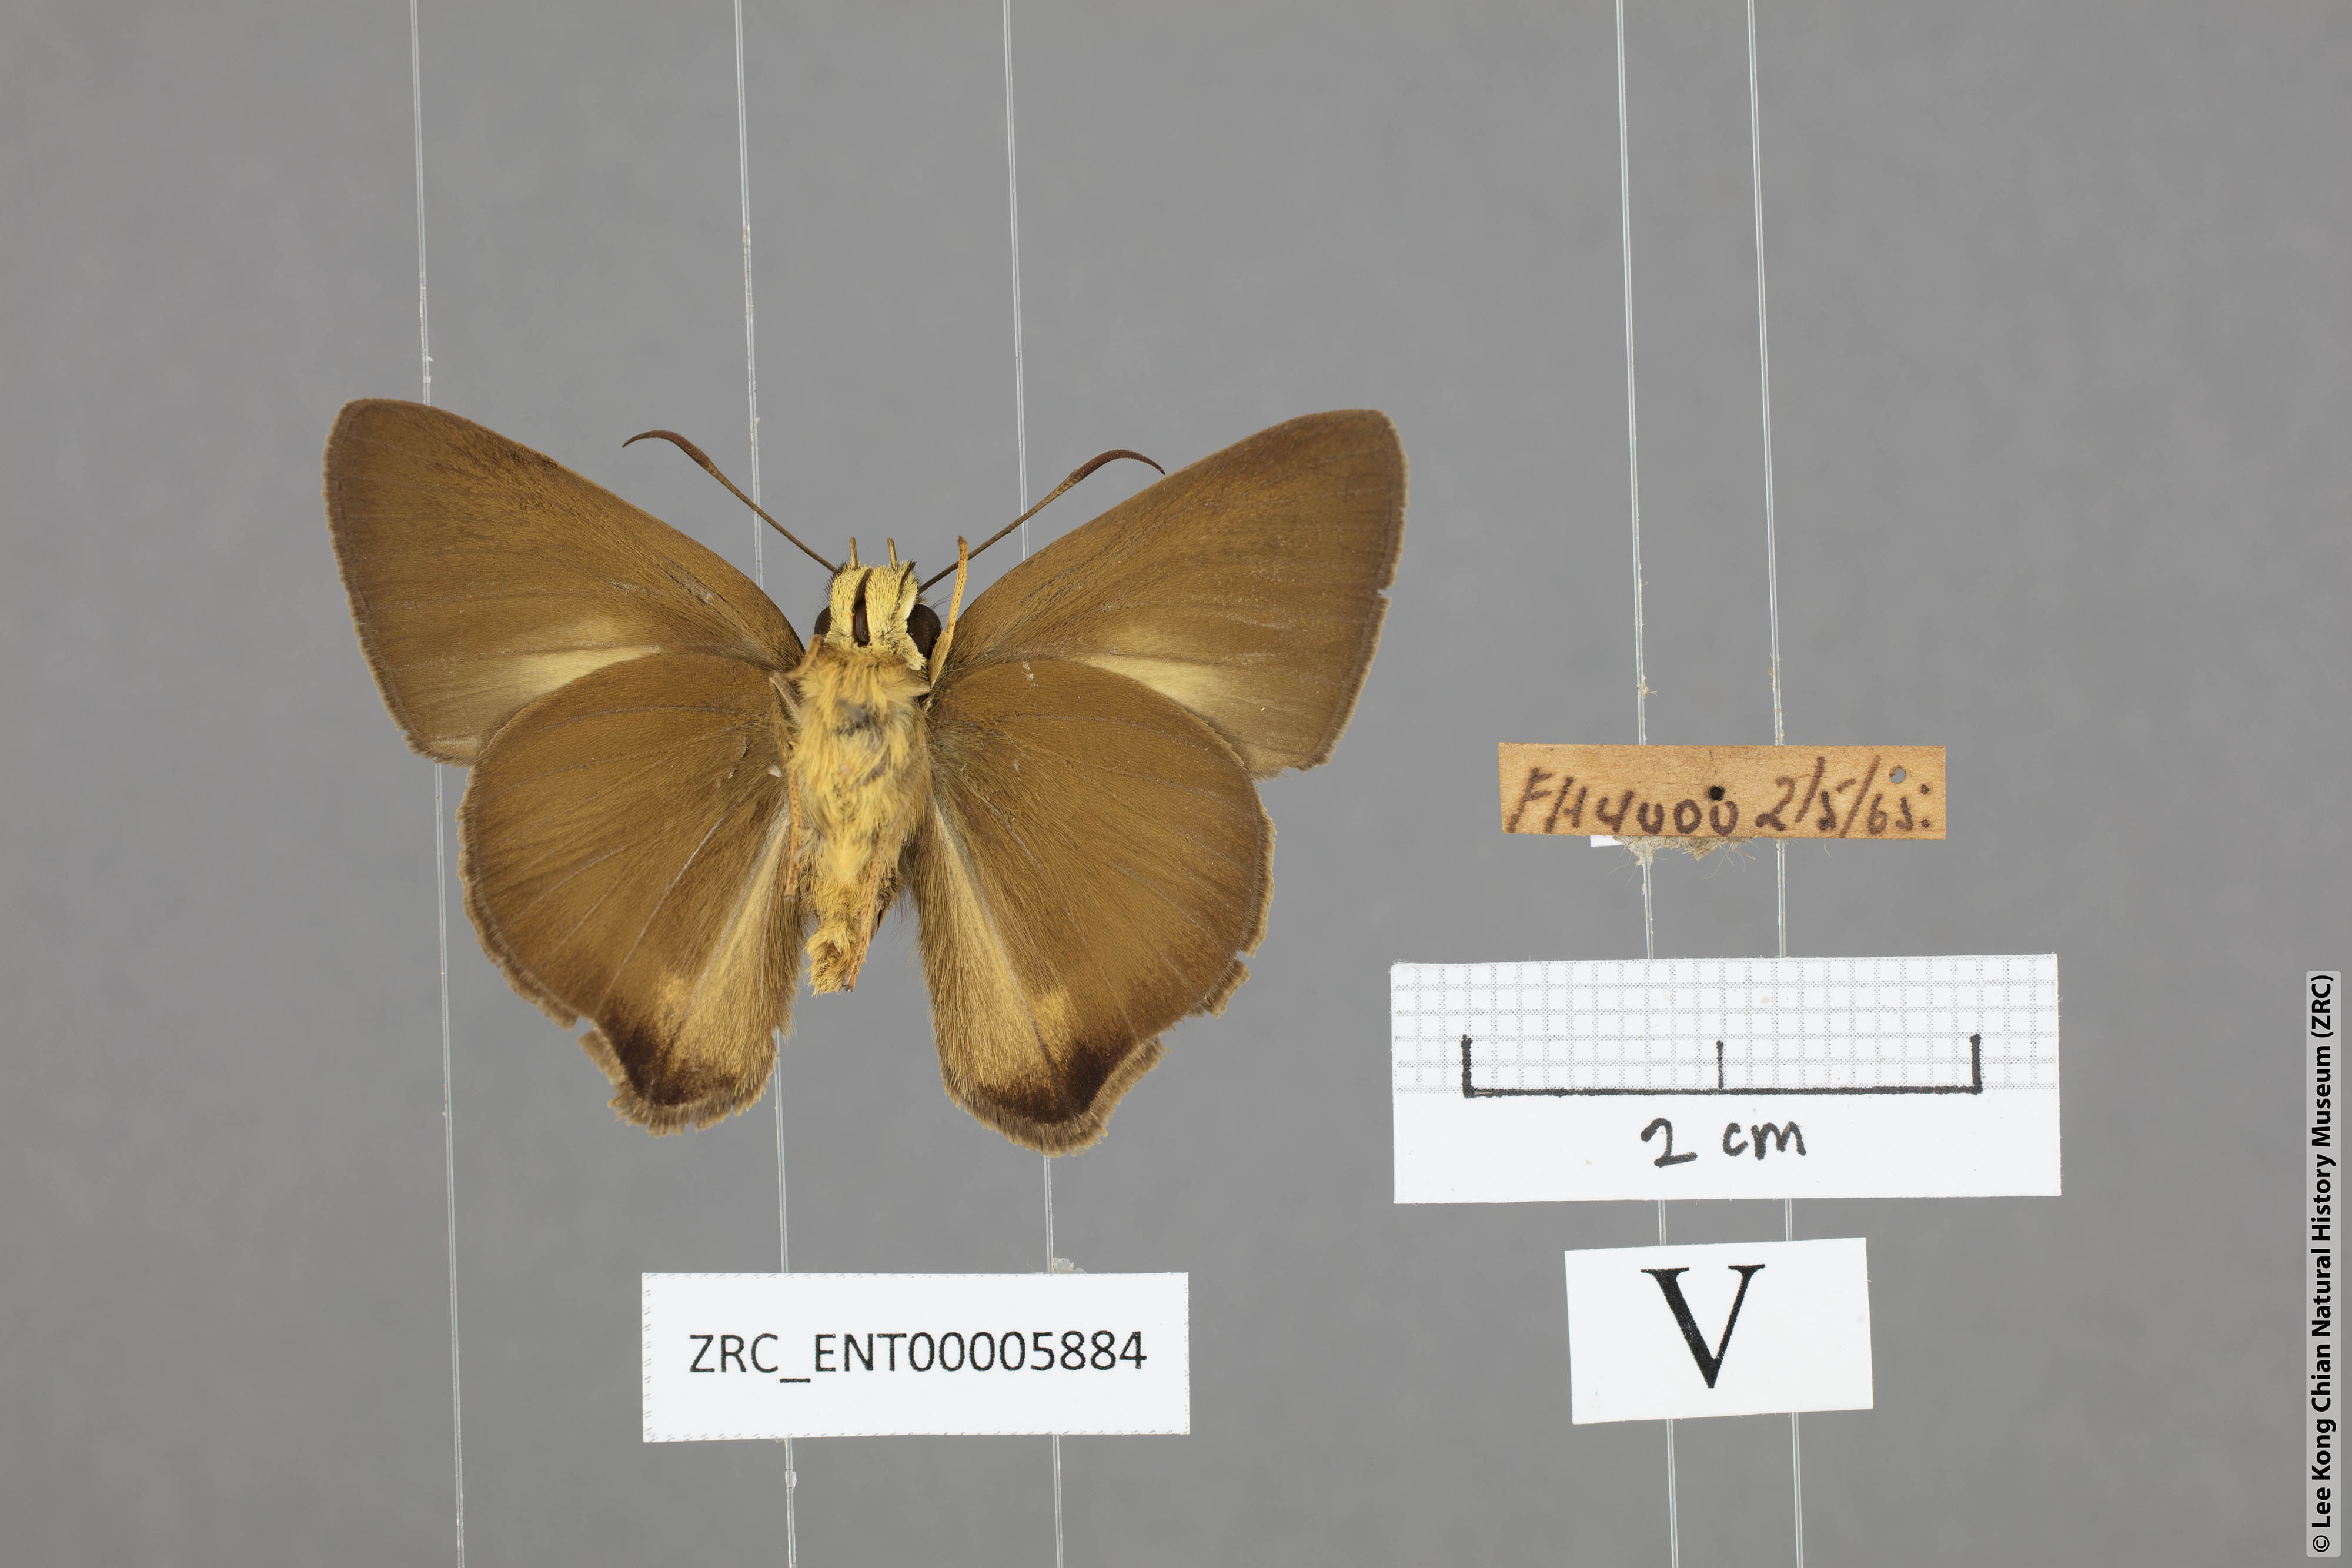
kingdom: Animalia
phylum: Arthropoda
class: Insecta
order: Lepidoptera
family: Hesperiidae
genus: Hasora
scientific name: Hasora mus
